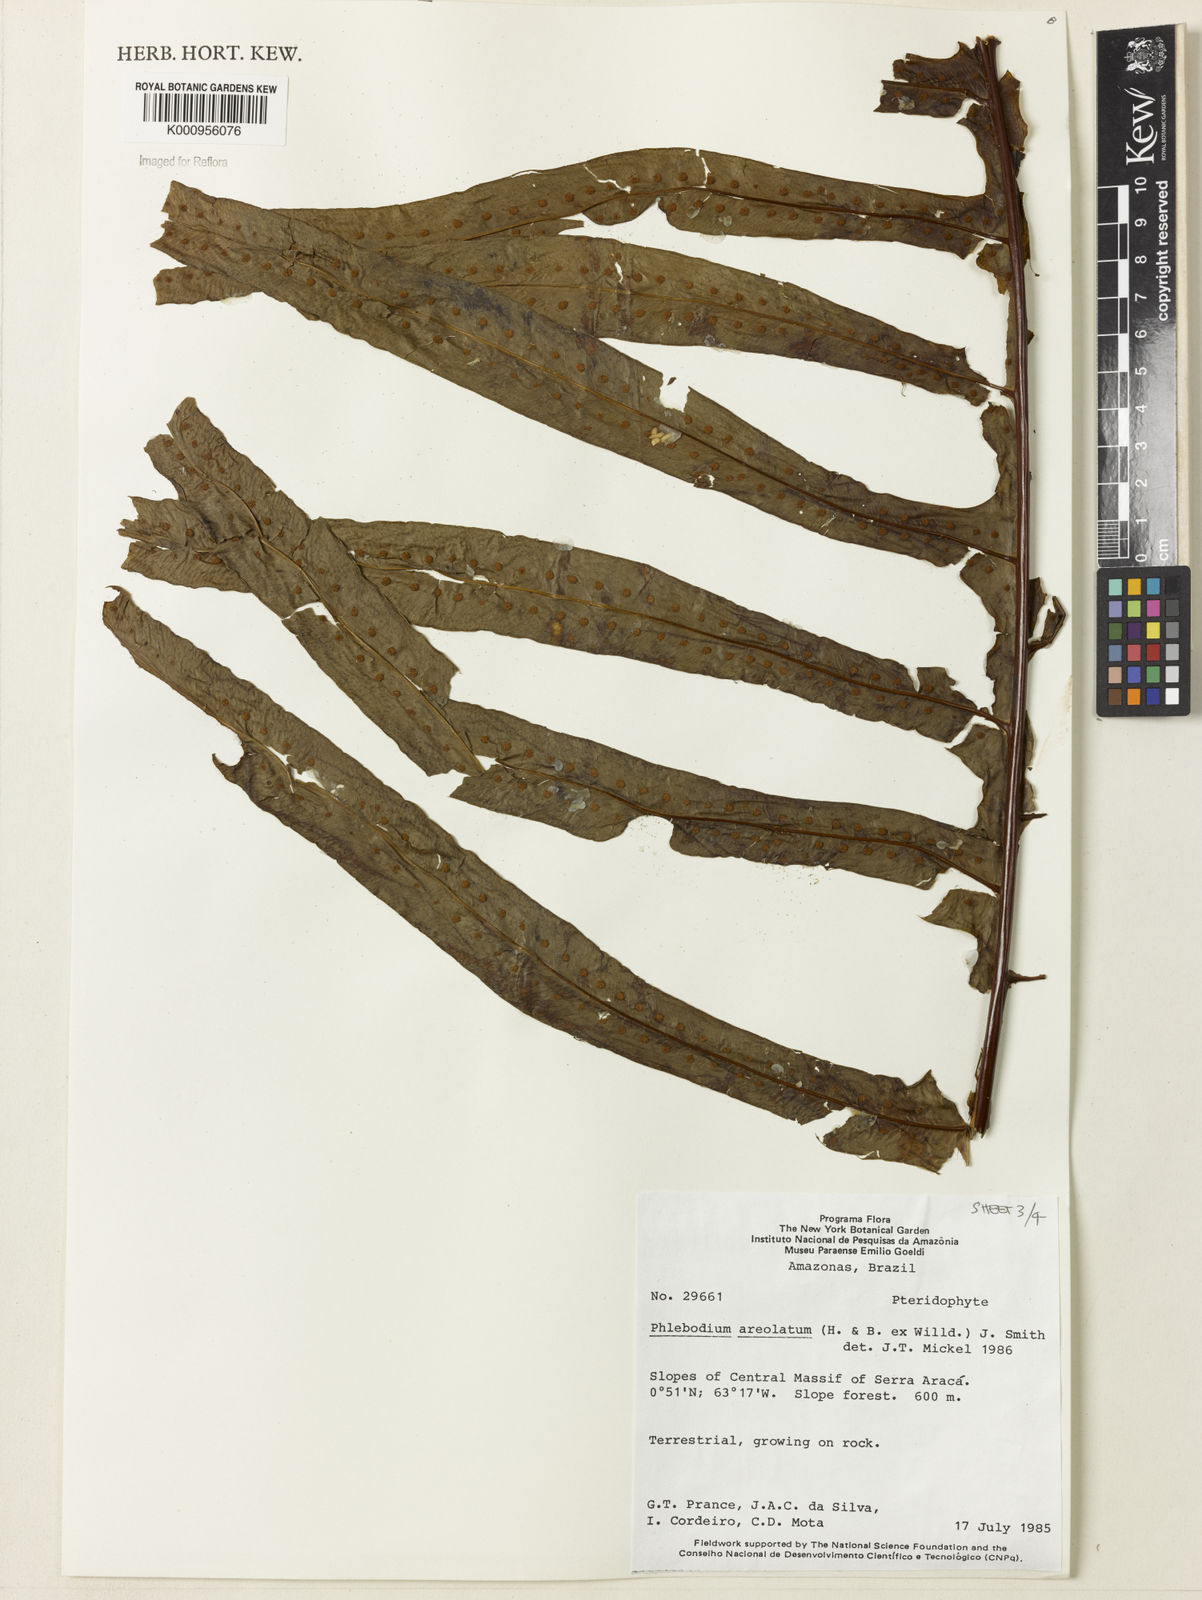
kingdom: Plantae
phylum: Tracheophyta
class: Polypodiopsida
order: Polypodiales
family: Polypodiaceae
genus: Phlebodium
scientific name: Phlebodium aureum
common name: Gold-foot fern
